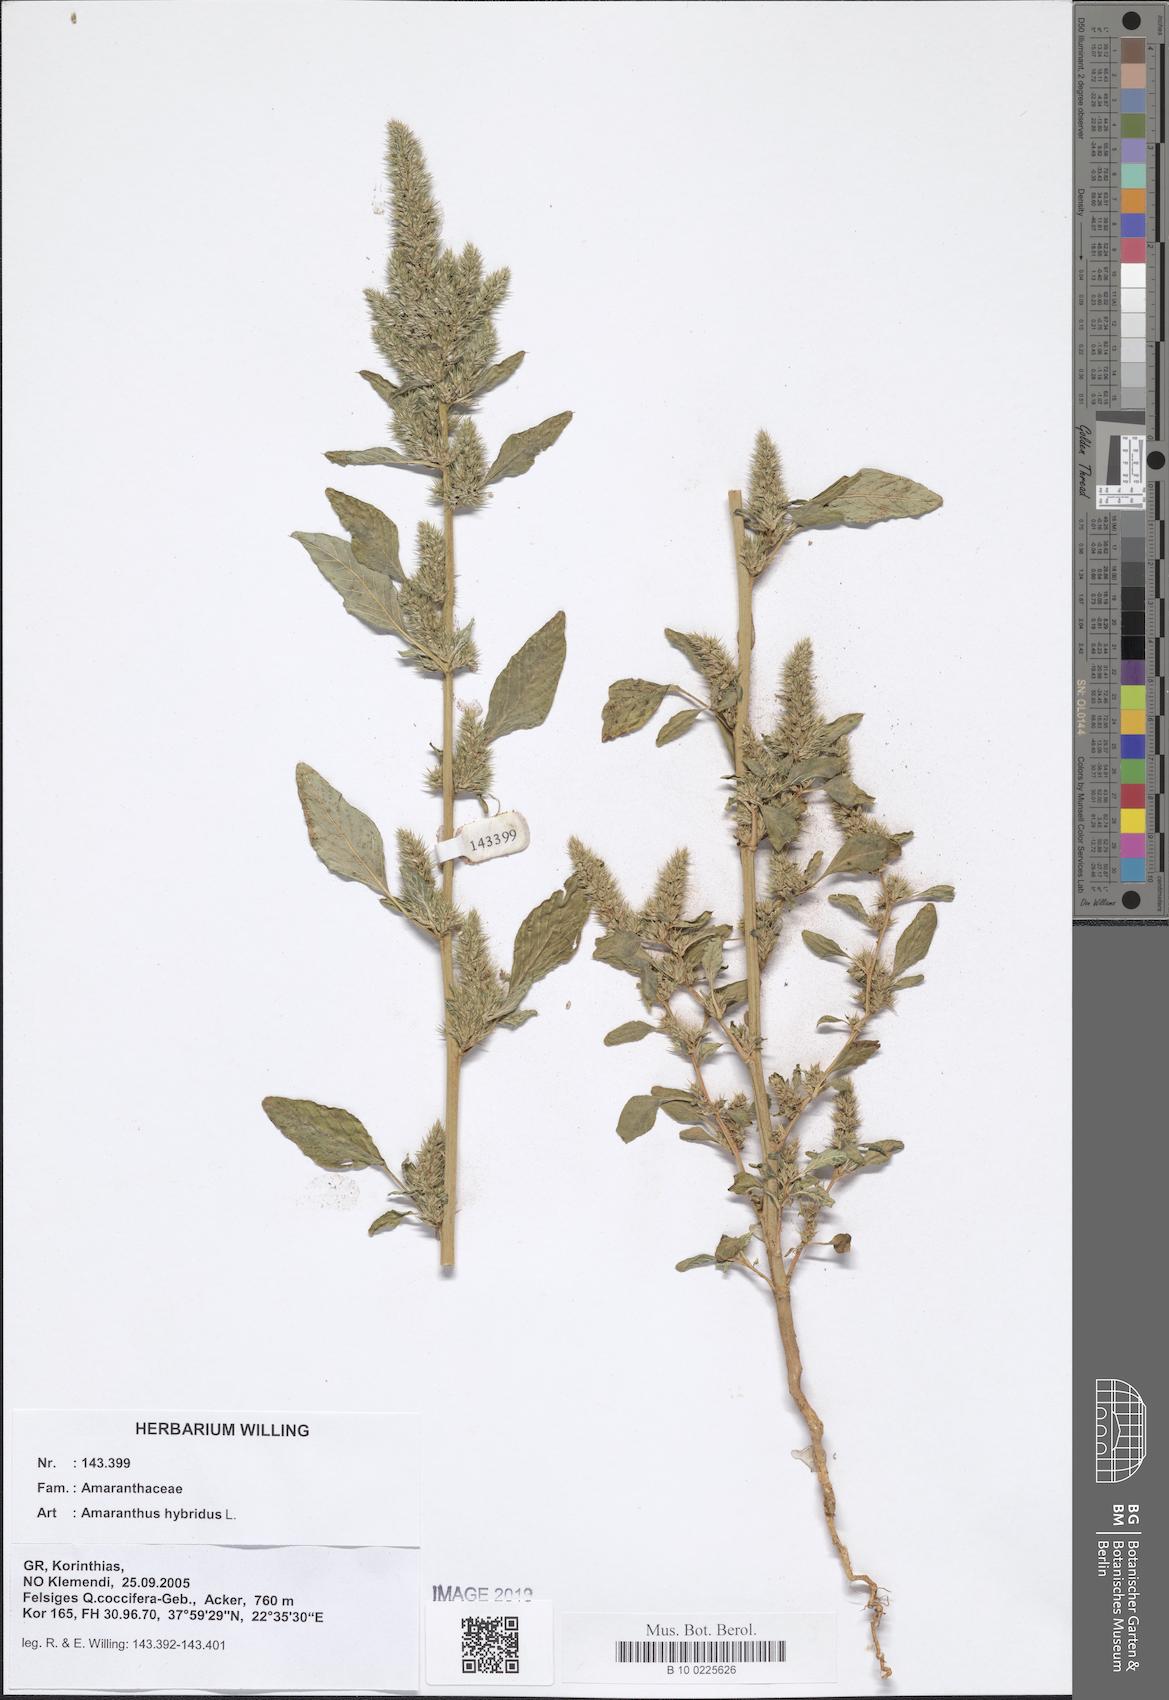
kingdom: Plantae
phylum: Tracheophyta
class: Magnoliopsida
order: Caryophyllales
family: Amaranthaceae
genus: Amaranthus
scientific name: Amaranthus hybridus
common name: Green amaranth
